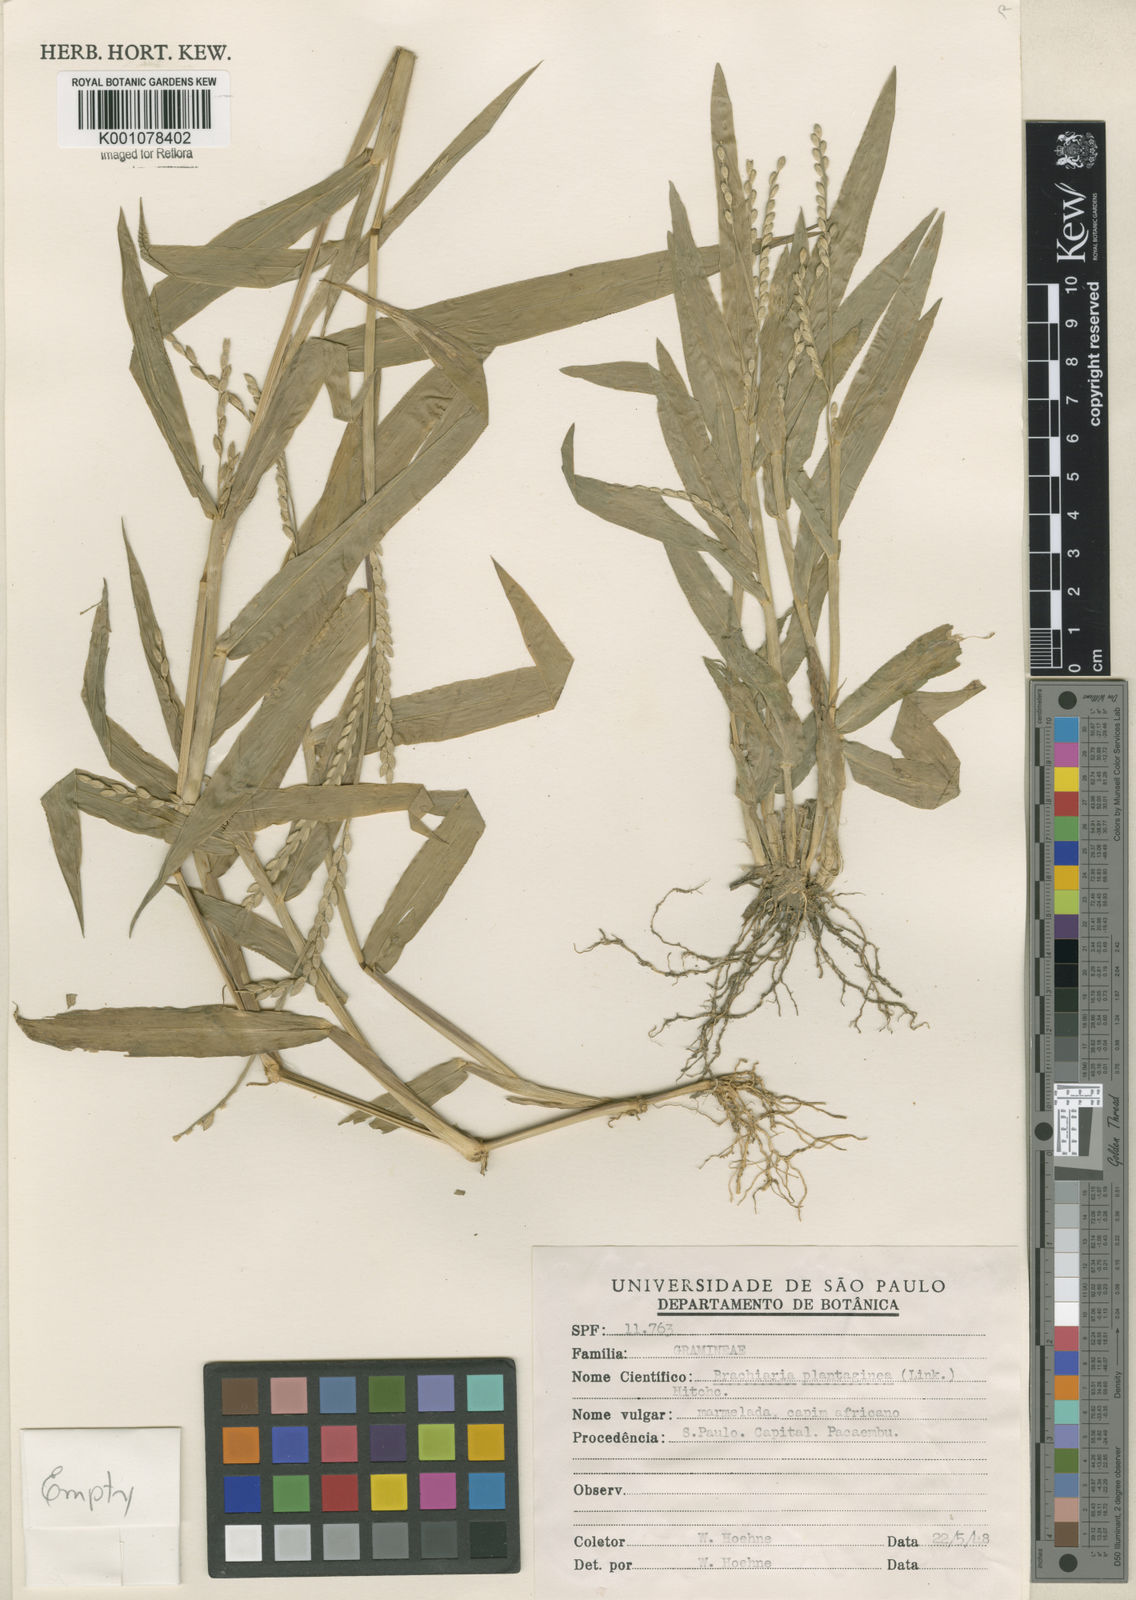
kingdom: Plantae
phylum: Tracheophyta
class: Liliopsida
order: Poales
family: Poaceae
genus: Urochloa
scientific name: Urochloa plantaginea
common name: Plantain signalgrass
